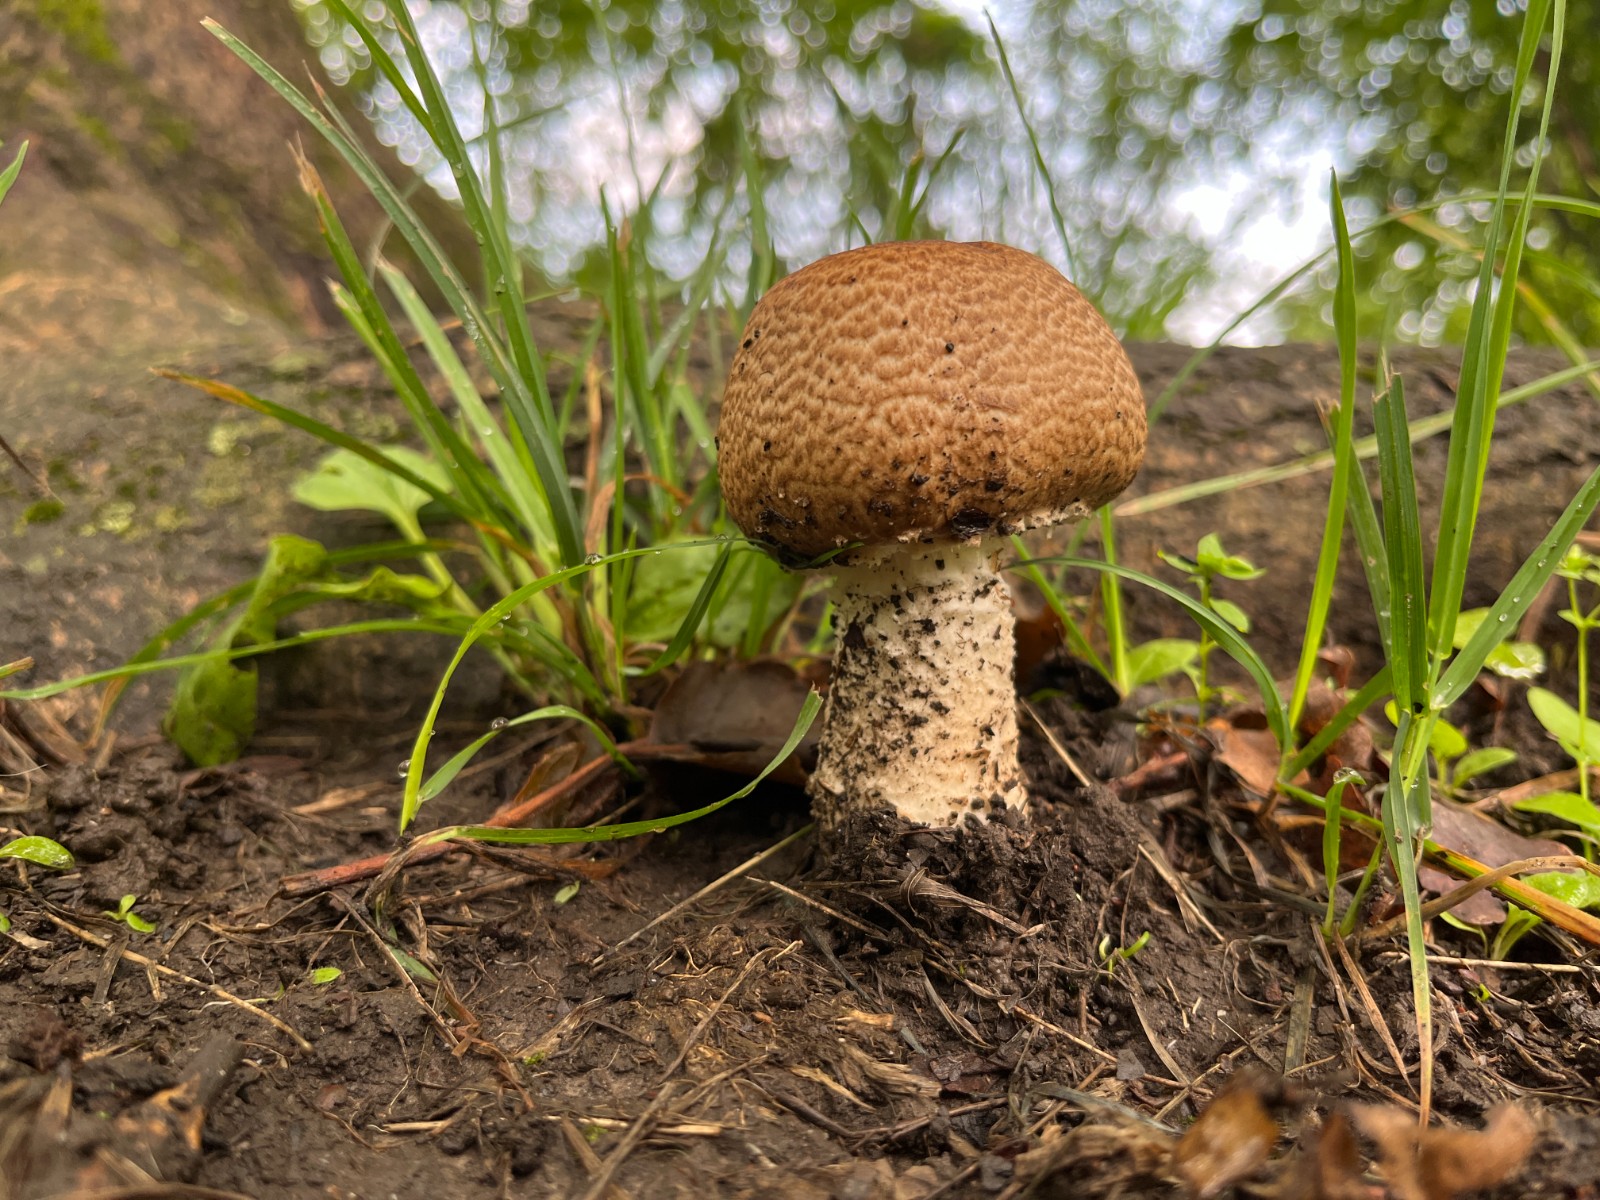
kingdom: Fungi
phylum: Basidiomycota
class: Agaricomycetes
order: Agaricales
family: Agaricaceae
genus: Agaricus
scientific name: Agaricus augustus
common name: prægtig champignon
